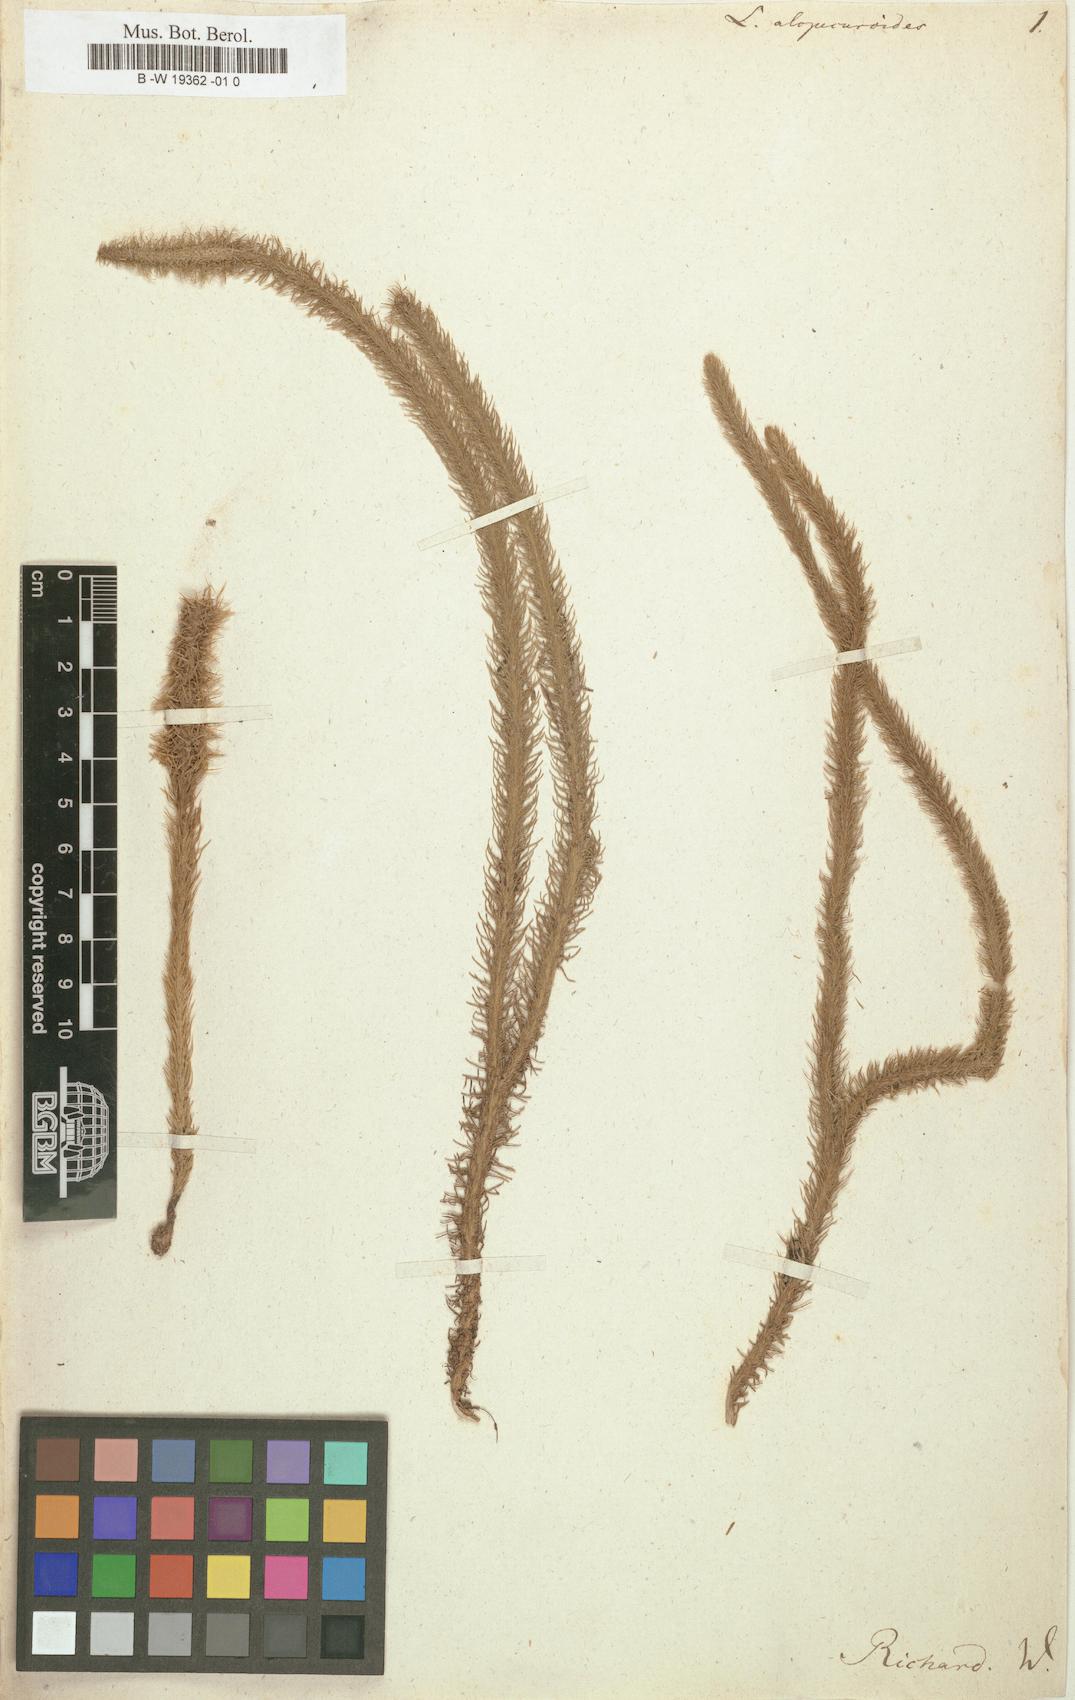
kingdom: Plantae
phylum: Tracheophyta
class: Lycopodiopsida
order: Lycopodiales
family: Lycopodiaceae
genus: Lycopodiella
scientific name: Lycopodiella alopecuroides
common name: Foxtail clubmoss
